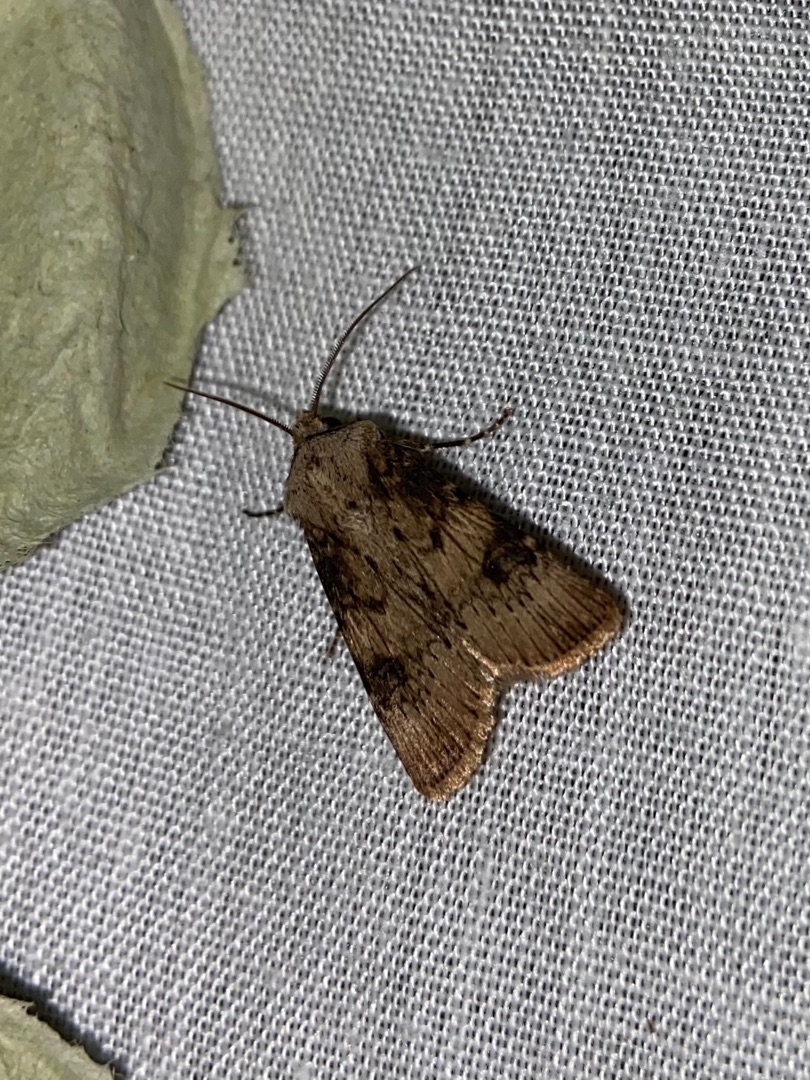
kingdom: Animalia
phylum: Arthropoda
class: Insecta
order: Lepidoptera
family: Noctuidae
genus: Agrotis
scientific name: Agrotis puta
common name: Frønnet landmand
